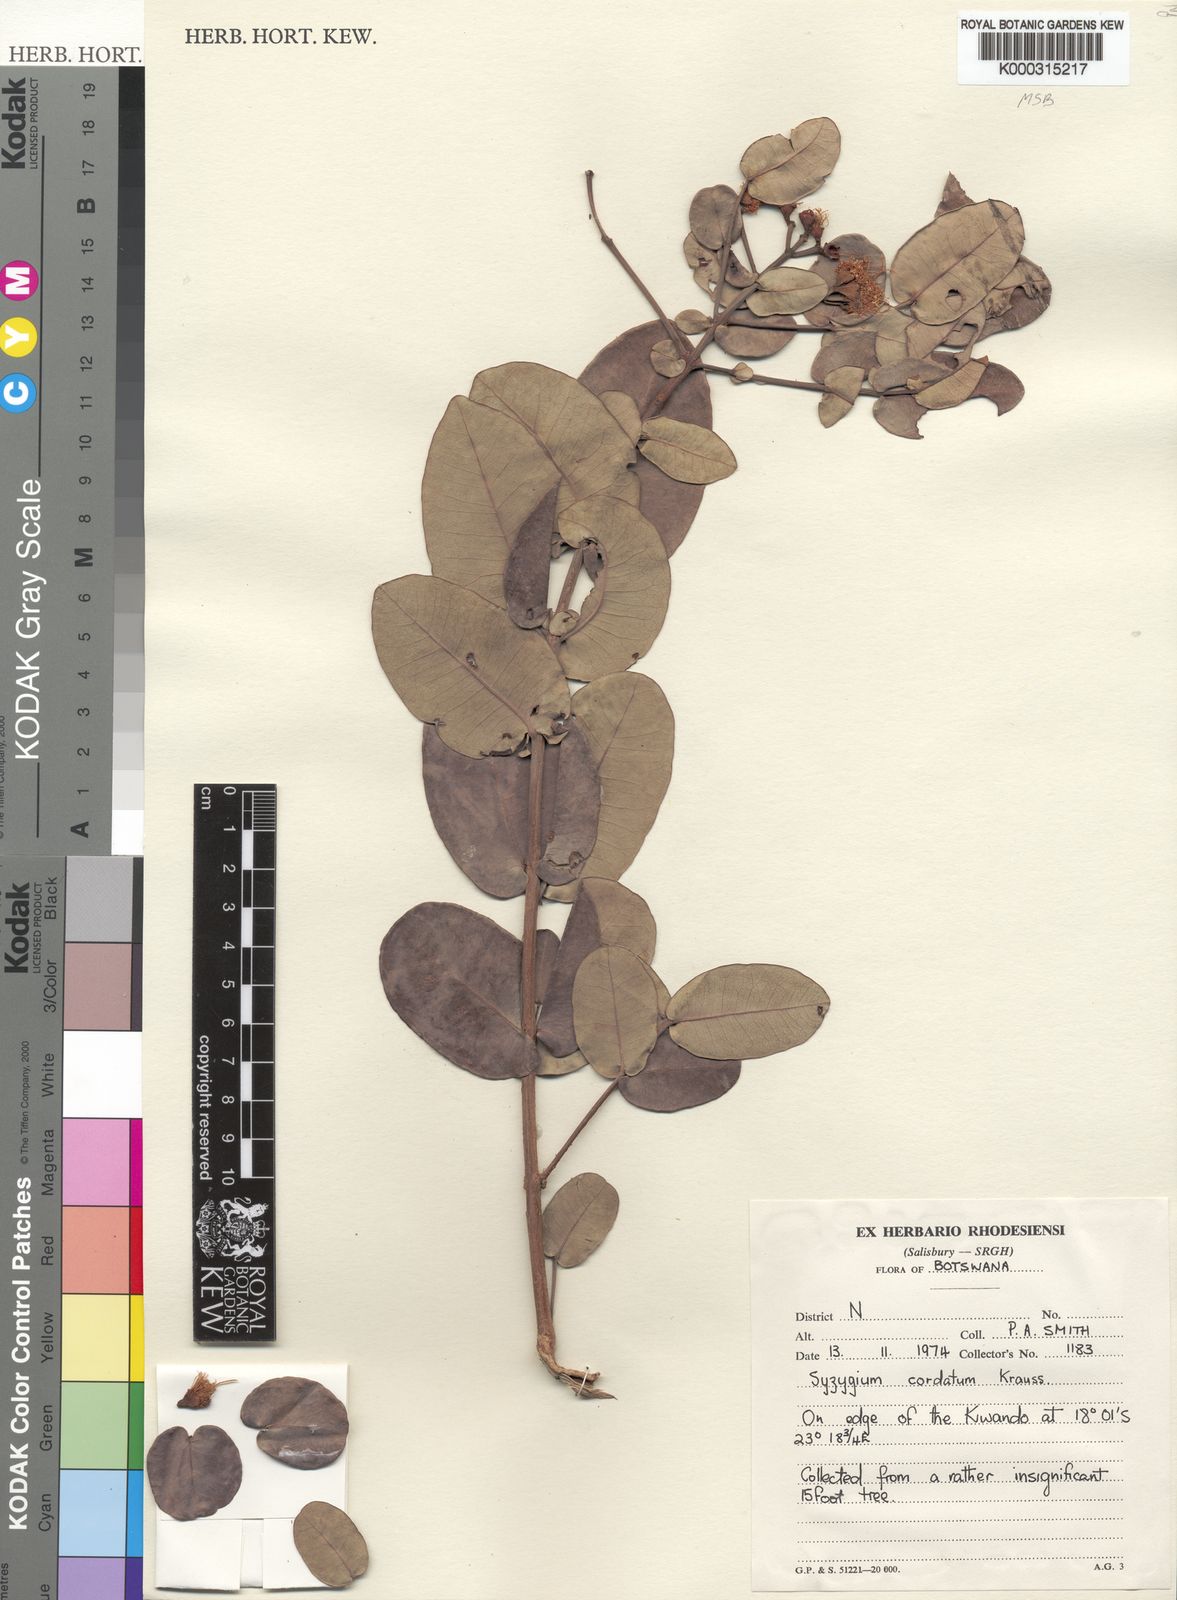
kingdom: Plantae
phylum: Tracheophyta
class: Magnoliopsida
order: Myrtales
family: Myrtaceae
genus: Syzygium
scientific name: Syzygium cordatum
